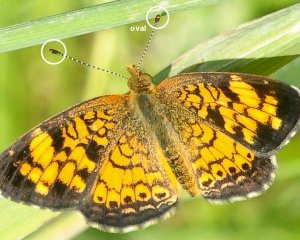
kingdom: Animalia
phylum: Arthropoda
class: Insecta
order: Lepidoptera
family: Nymphalidae
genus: Phyciodes
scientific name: Phyciodes tharos
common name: Pearl Crescent
